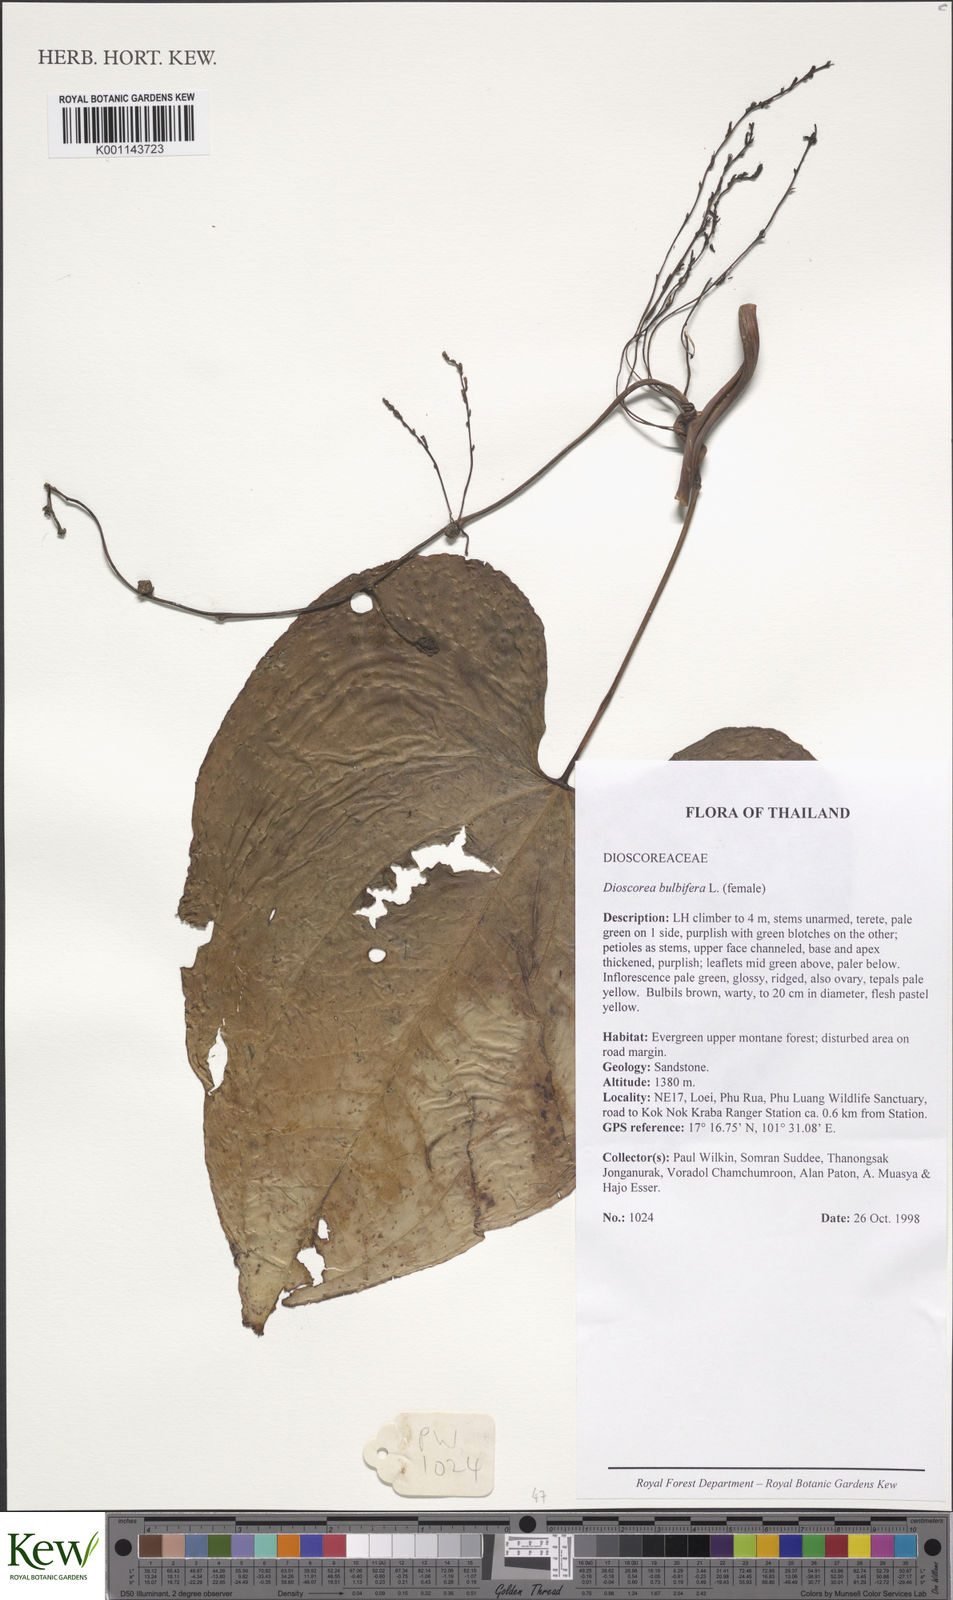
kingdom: Plantae
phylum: Tracheophyta
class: Liliopsida
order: Dioscoreales
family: Dioscoreaceae
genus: Dioscorea
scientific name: Dioscorea bulbifera
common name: Air yam
